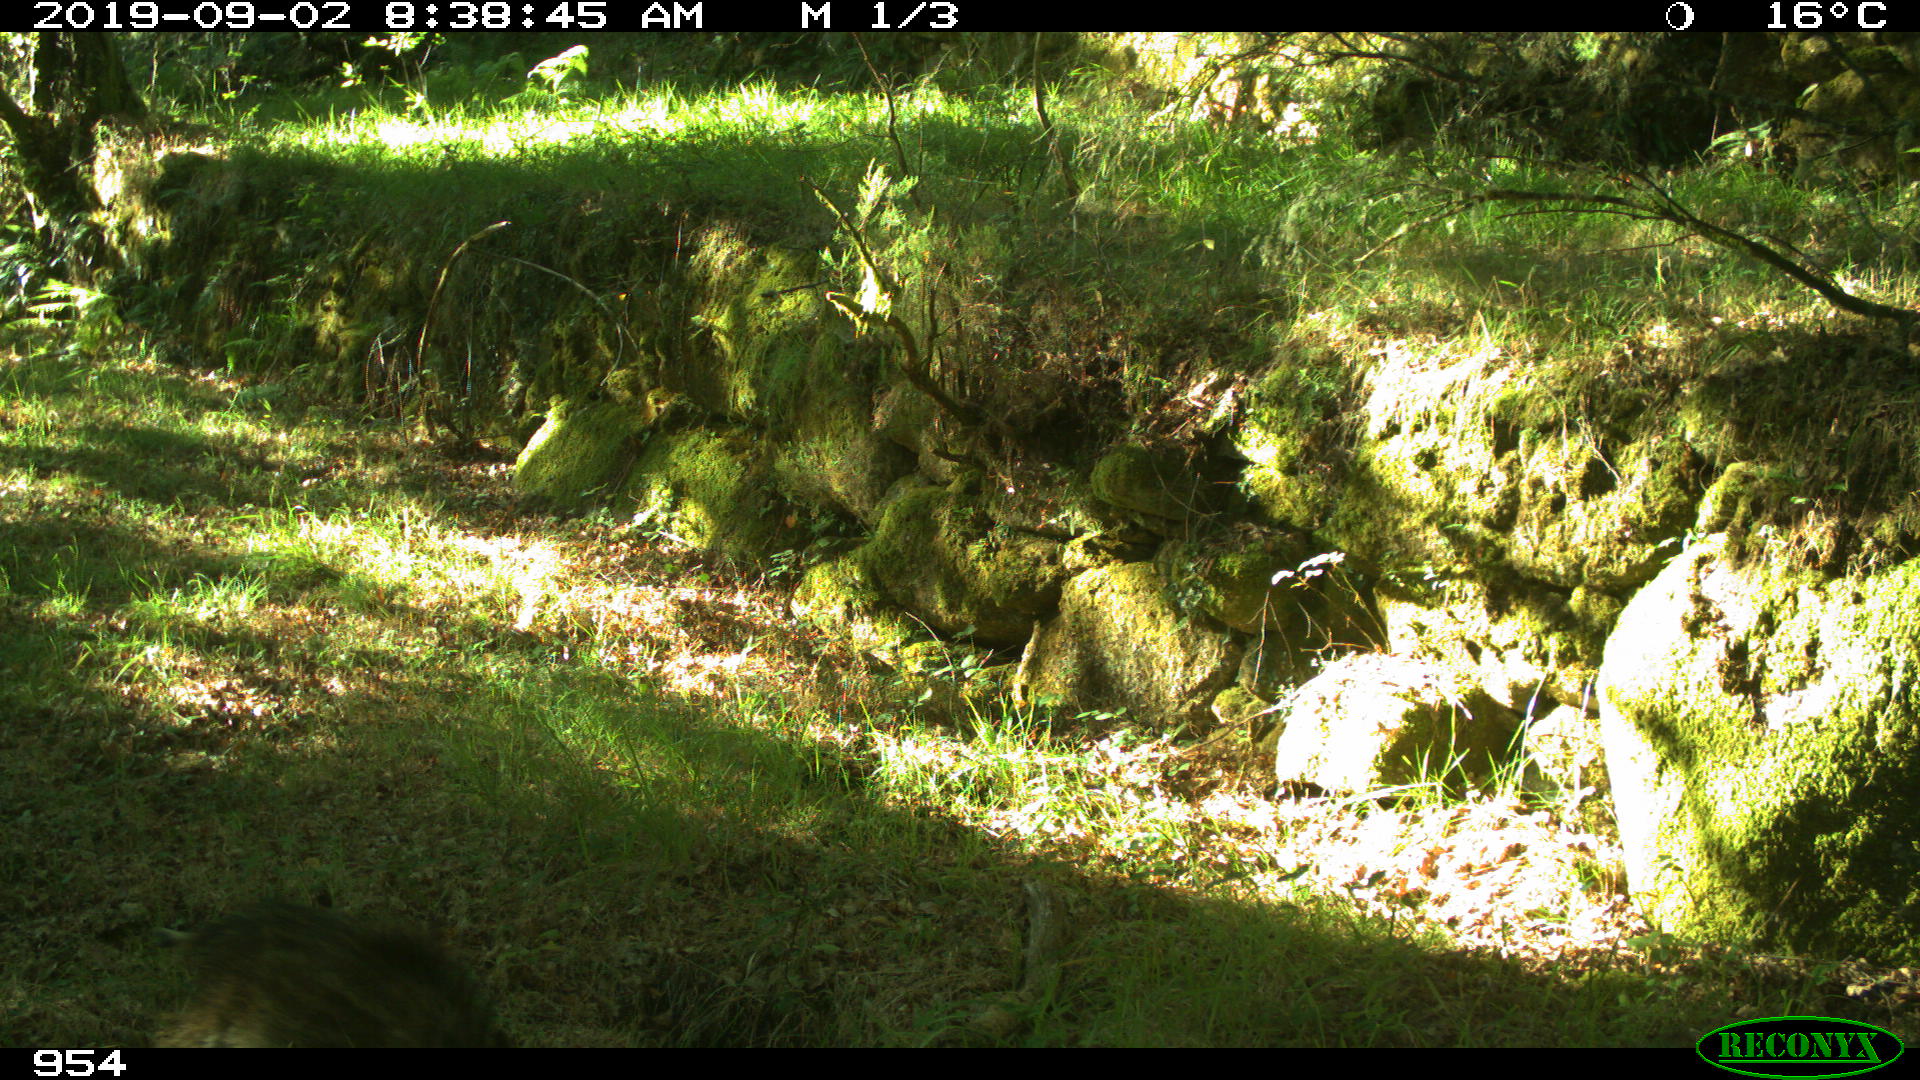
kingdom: Animalia
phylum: Chordata
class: Mammalia
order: Artiodactyla
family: Suidae
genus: Sus
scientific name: Sus scrofa
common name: Wild boar
